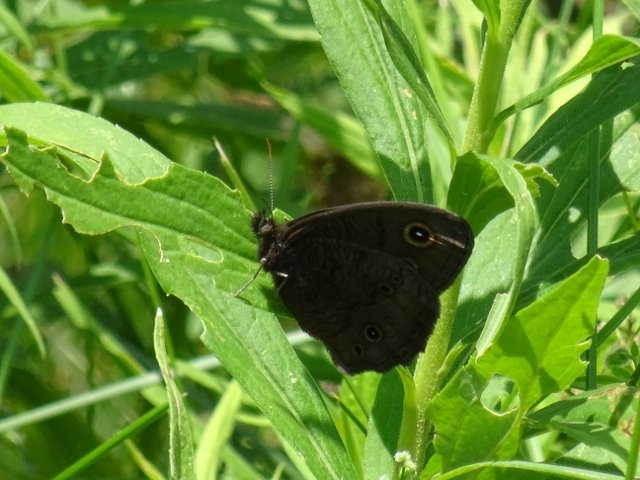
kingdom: Animalia
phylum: Arthropoda
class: Insecta
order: Lepidoptera
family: Nymphalidae
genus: Cercyonis
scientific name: Cercyonis pegala
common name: Common Wood-Nymph
